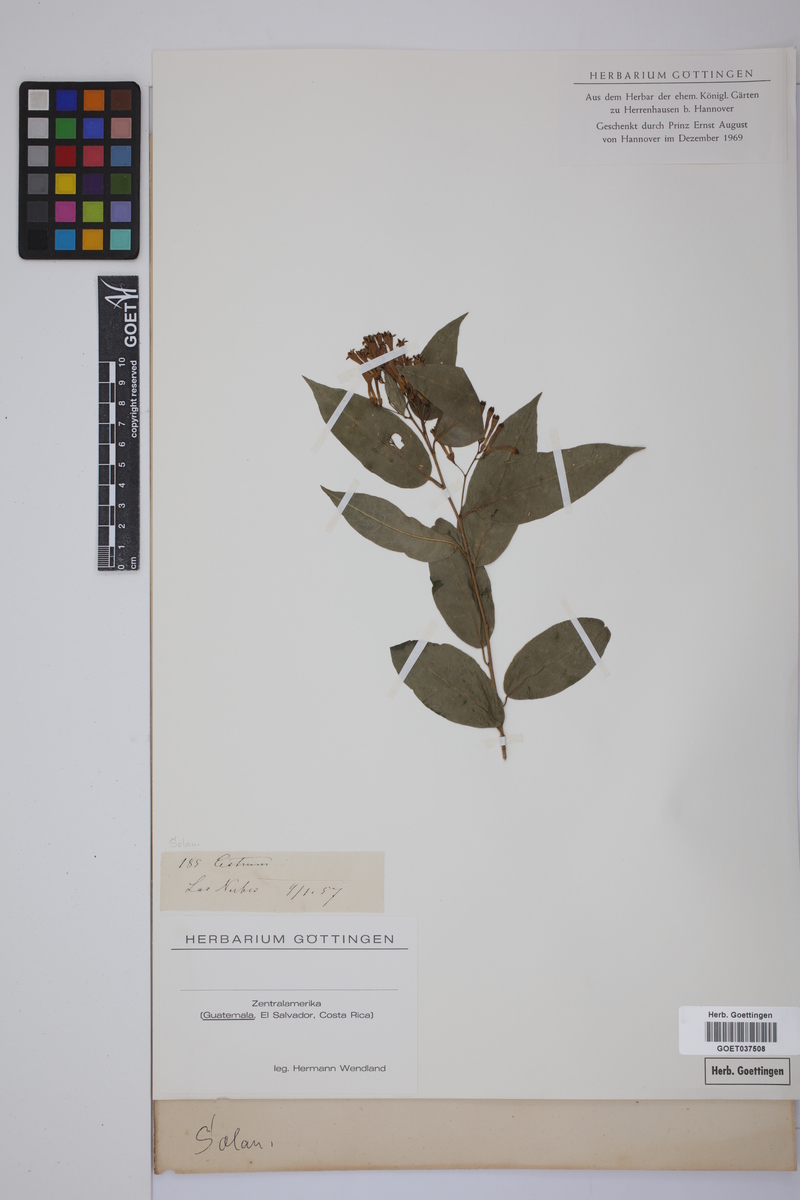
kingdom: Plantae
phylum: Tracheophyta
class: Magnoliopsida
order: Solanales
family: Solanaceae
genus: Cestrum
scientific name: Cestrum
